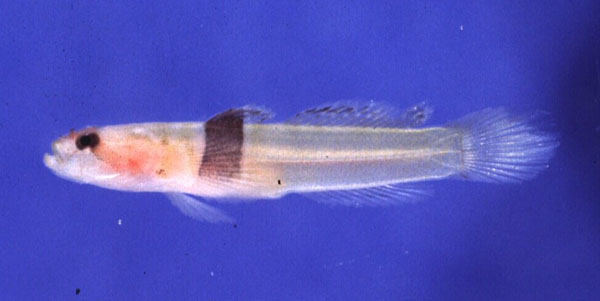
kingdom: Animalia
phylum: Chordata
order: Perciformes
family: Gobiidae
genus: Hetereleotris
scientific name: Hetereleotris zonata
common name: Goggles
